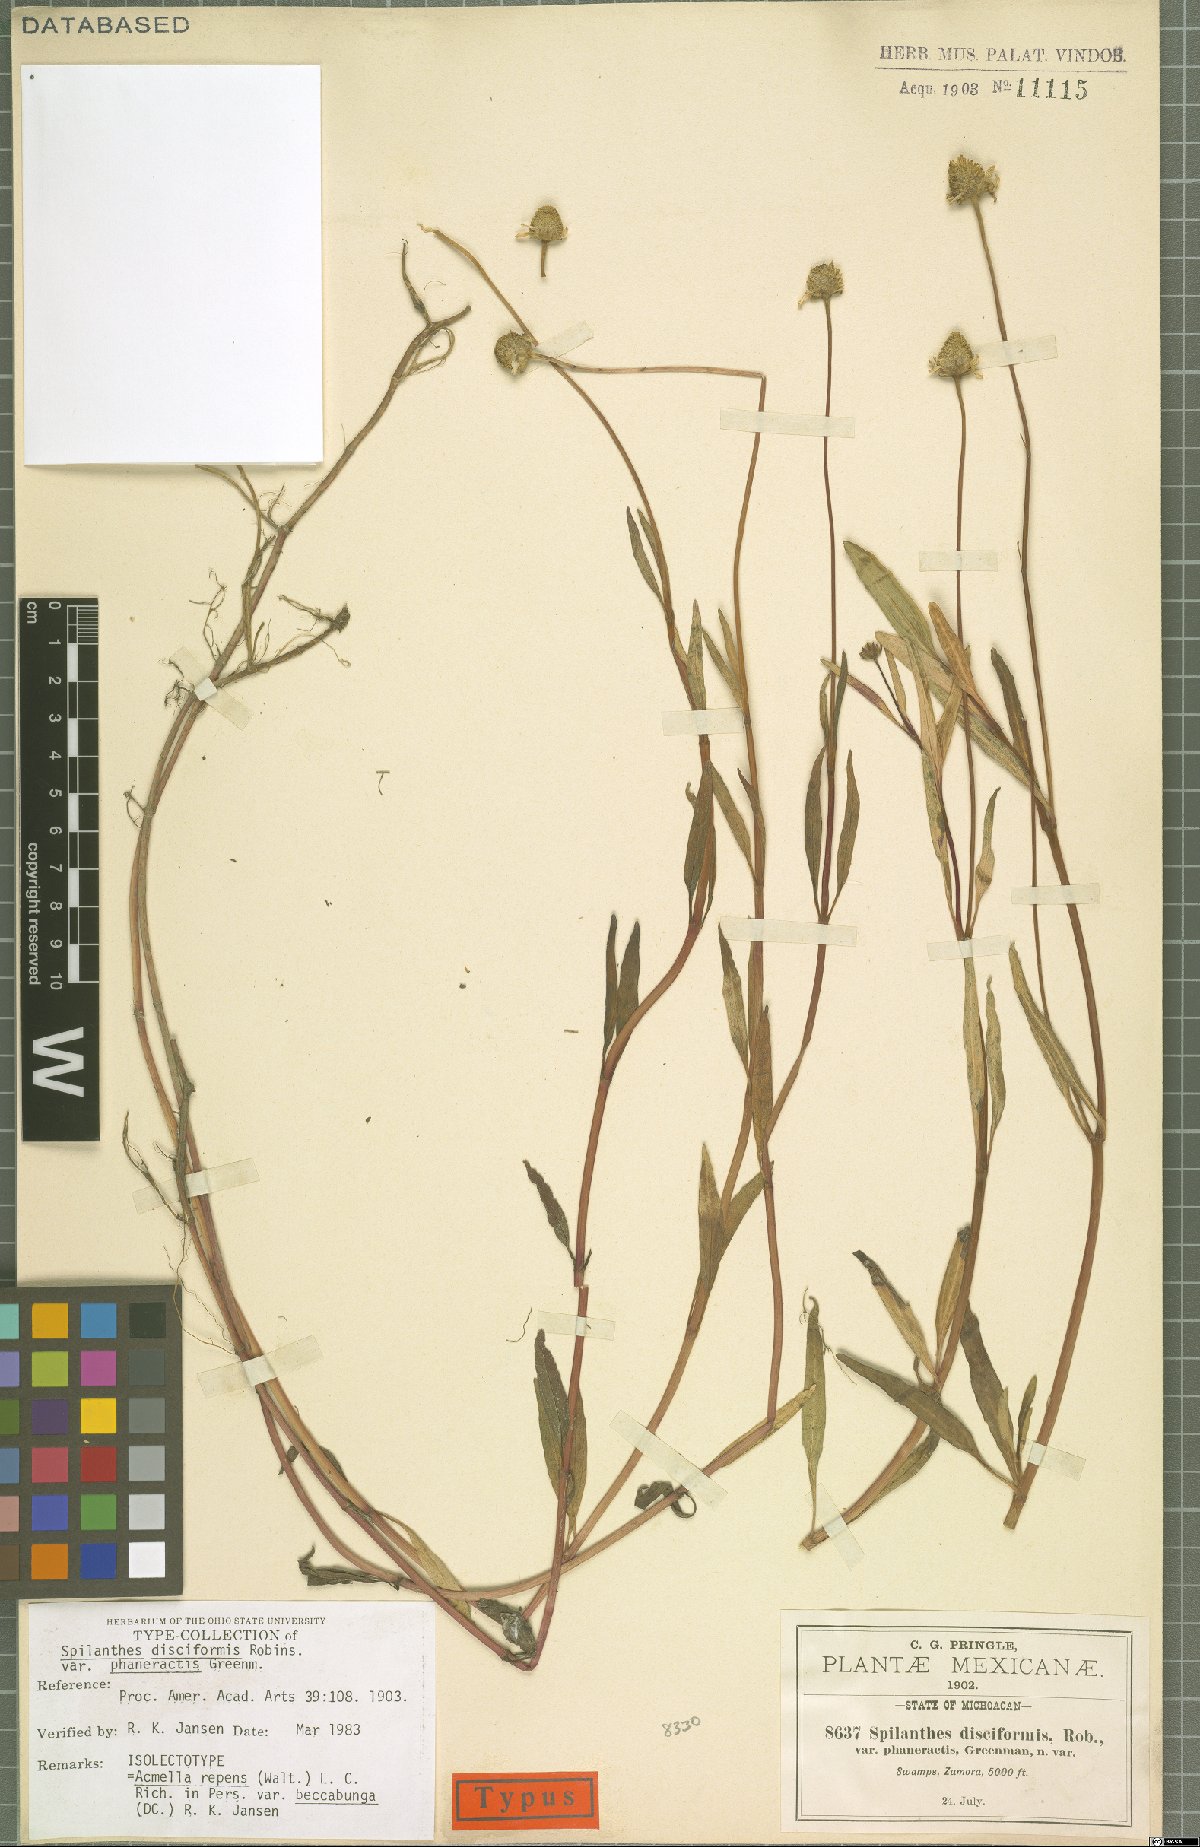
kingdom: Plantae
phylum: Tracheophyta
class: Magnoliopsida
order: Asterales
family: Asteraceae
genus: Acmella
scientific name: Acmella repens
